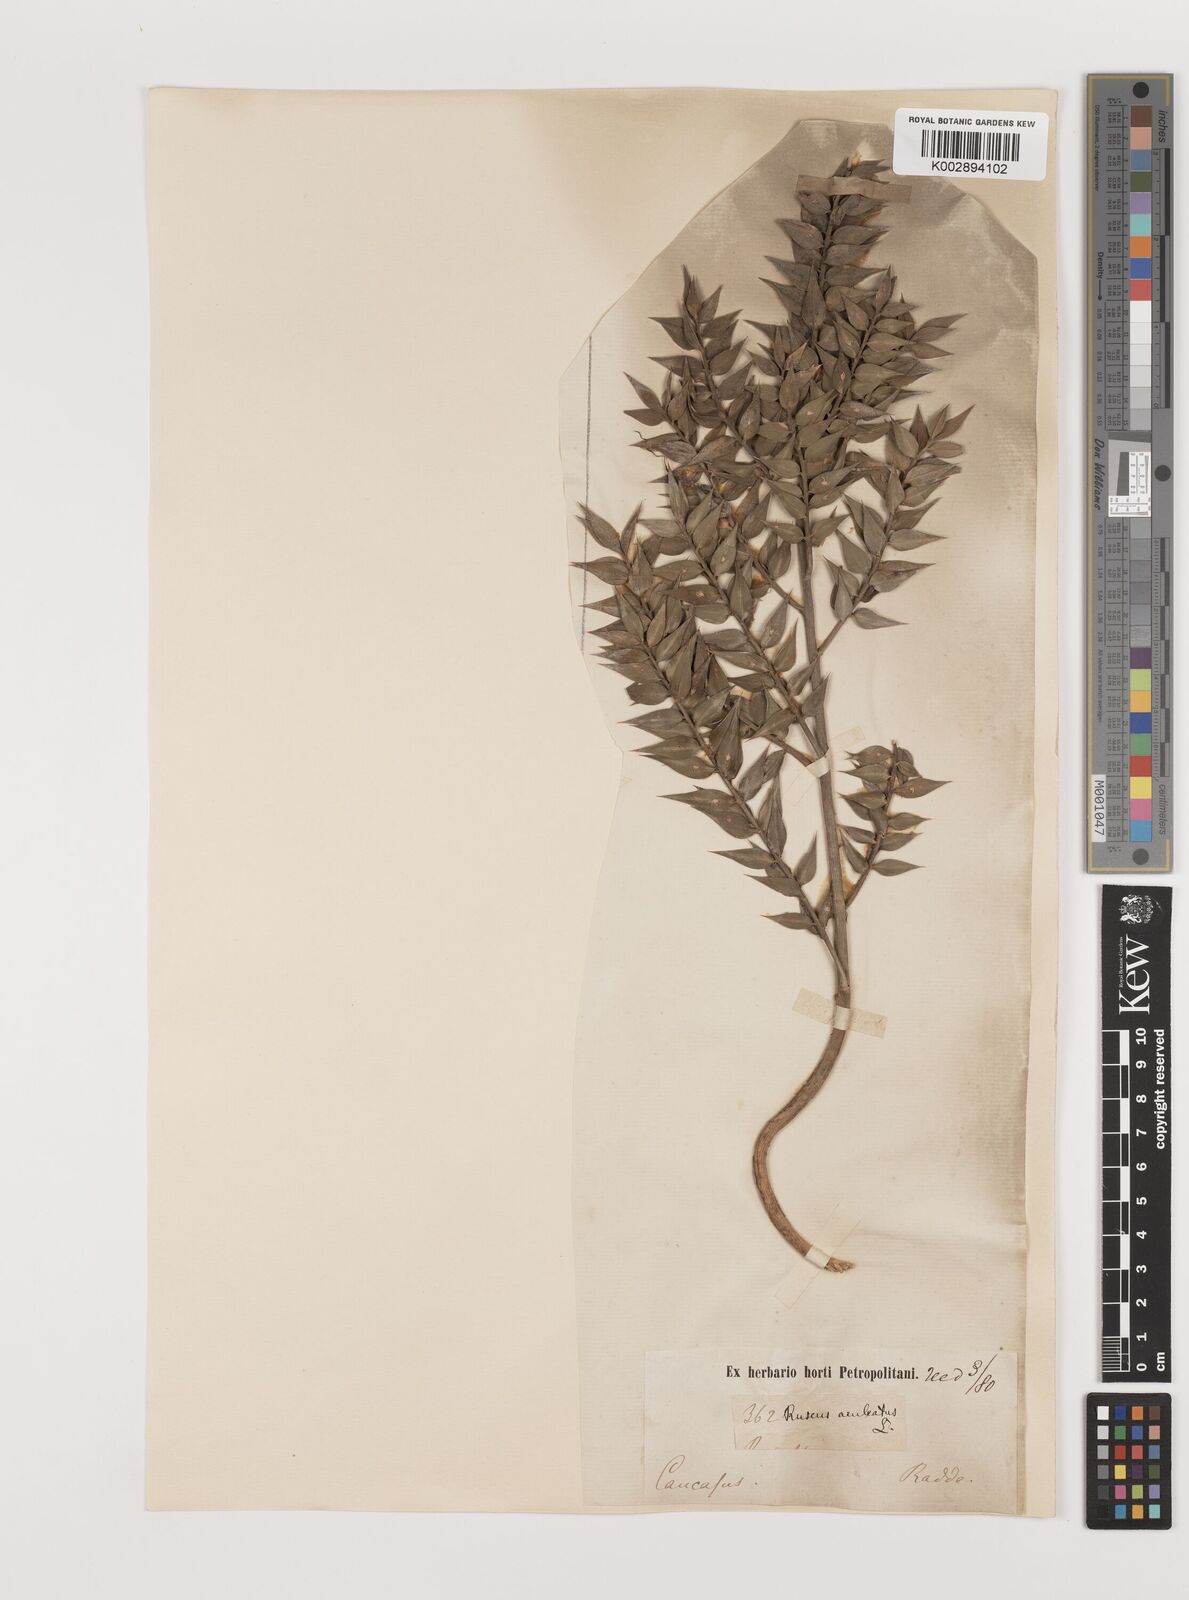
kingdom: Plantae
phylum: Tracheophyta
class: Liliopsida
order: Asparagales
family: Asparagaceae
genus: Ruscus
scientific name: Ruscus aculeatus
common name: Butcher's-broom
